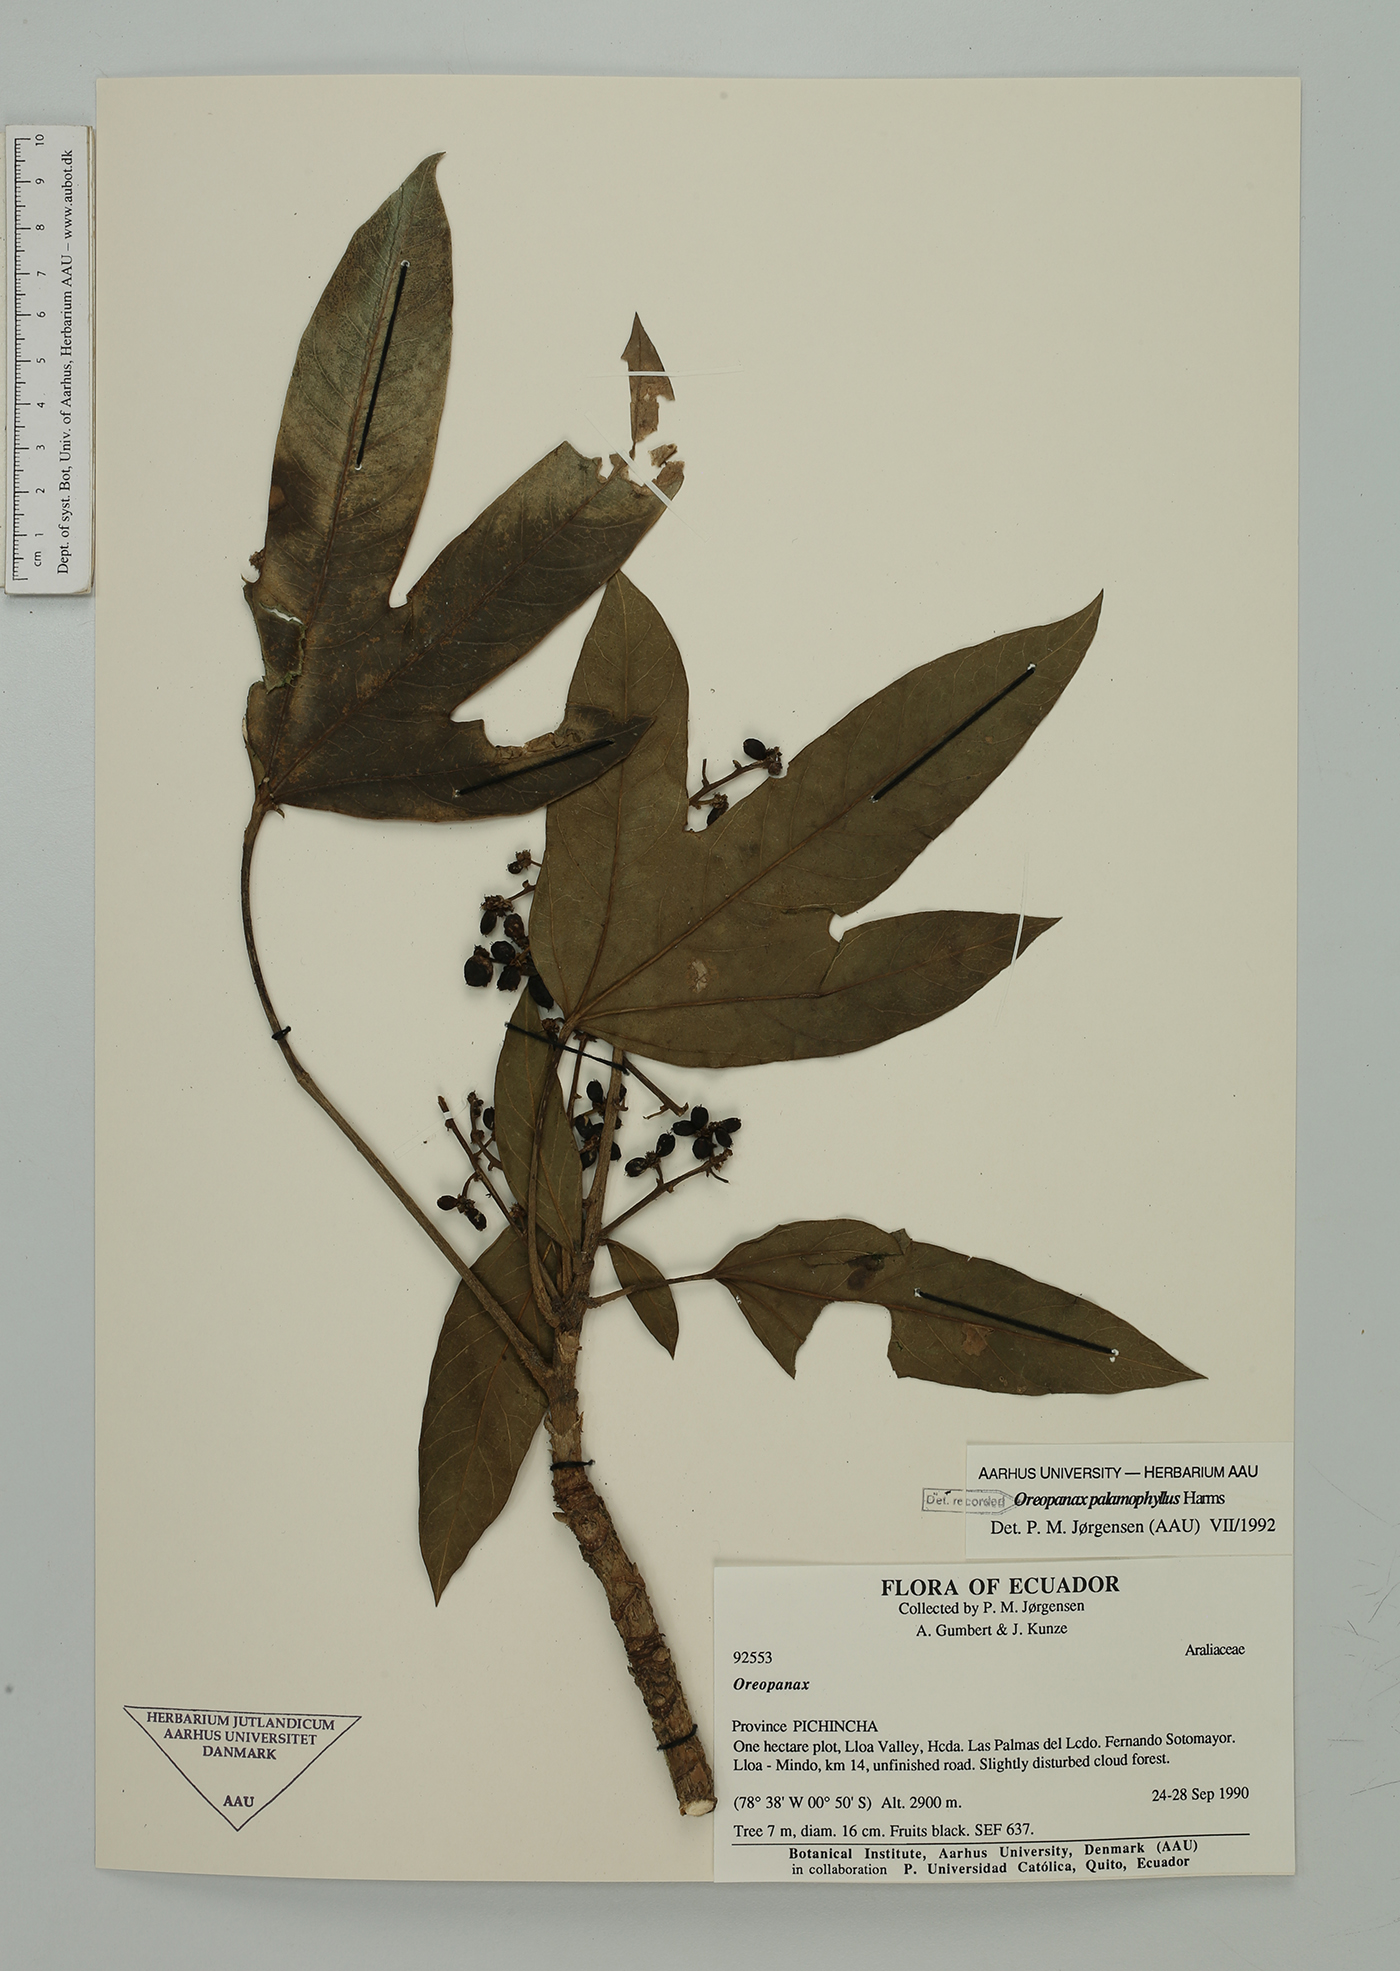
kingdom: Plantae
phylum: Tracheophyta
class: Magnoliopsida
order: Apiales
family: Araliaceae
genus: Oreopanax
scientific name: Oreopanax palamophyllus
